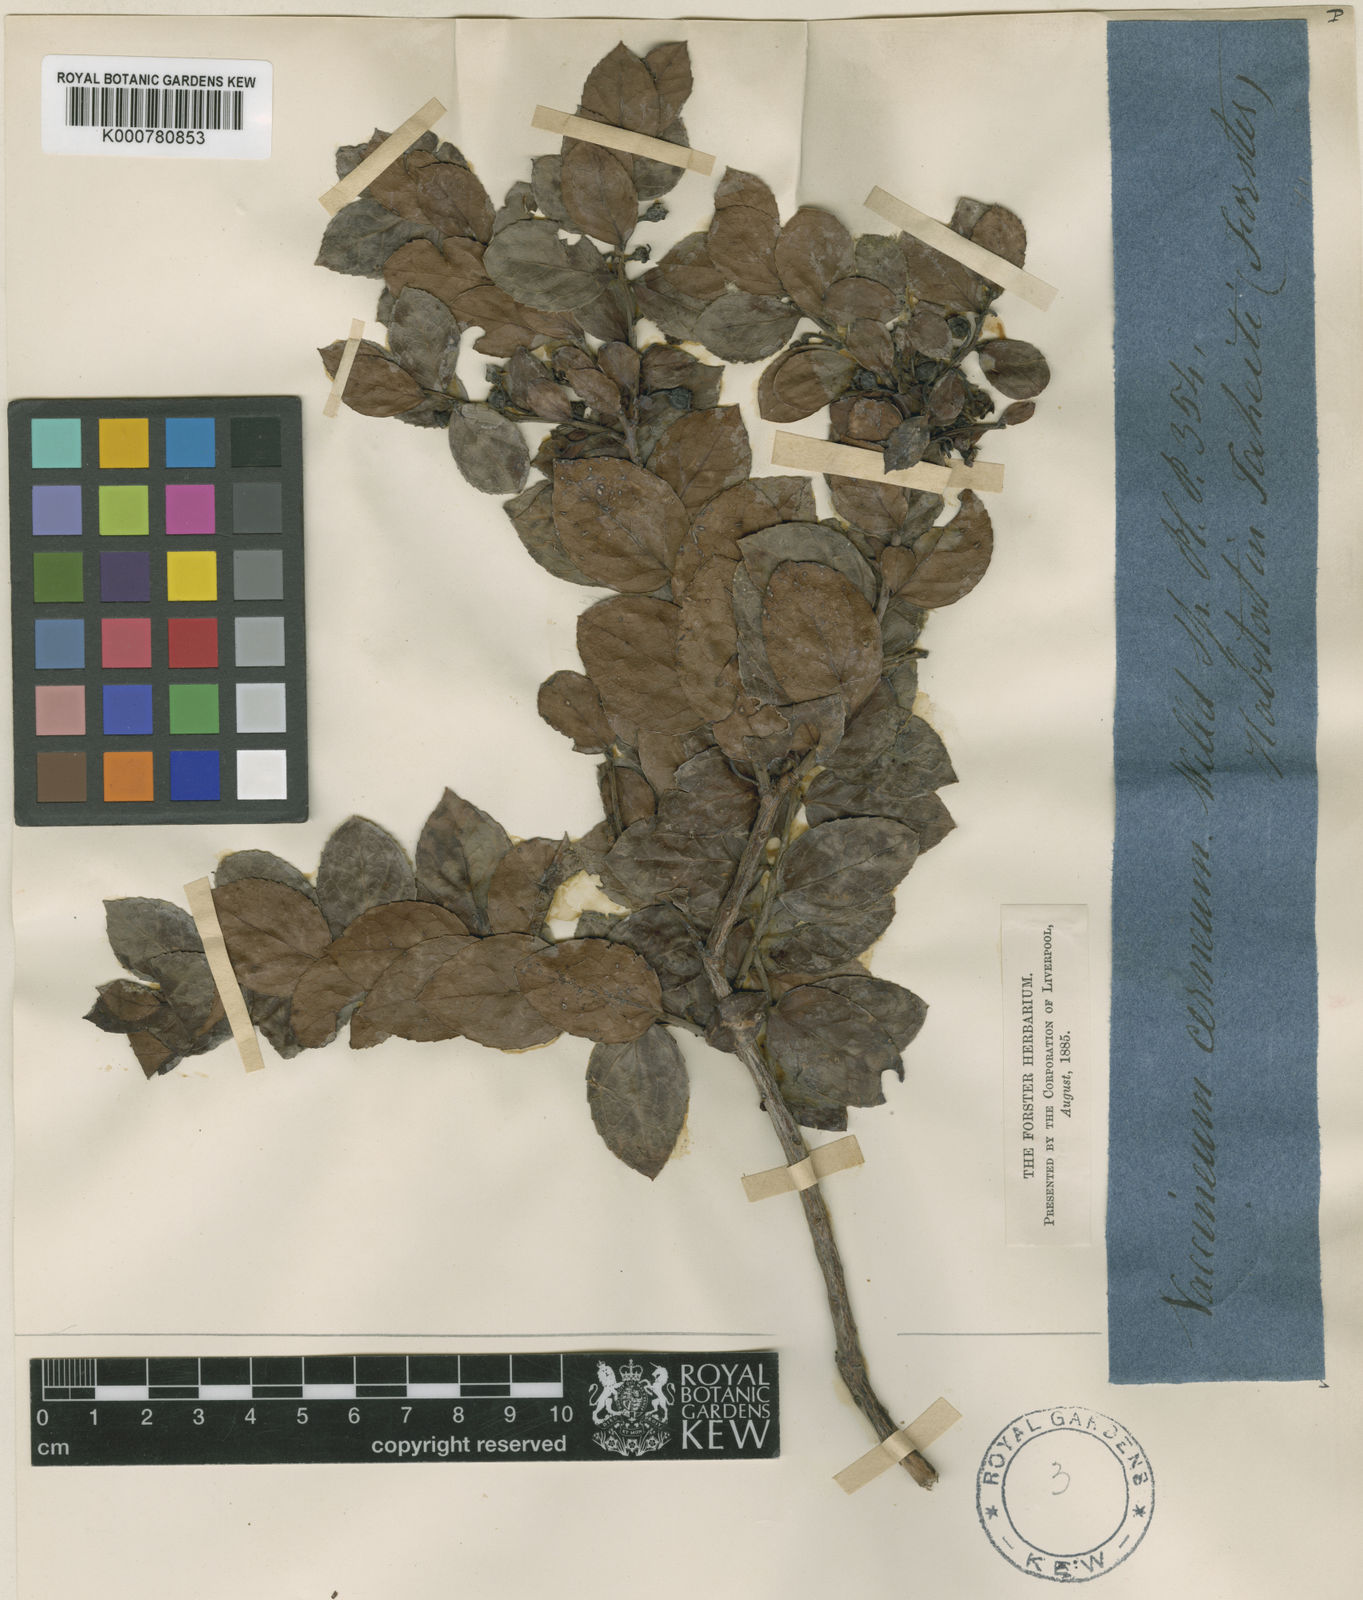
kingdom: Plantae
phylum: Tracheophyta
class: Magnoliopsida
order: Ericales
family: Ericaceae
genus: Vaccinium
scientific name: Vaccinium cereum
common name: East polynesian blueberry
